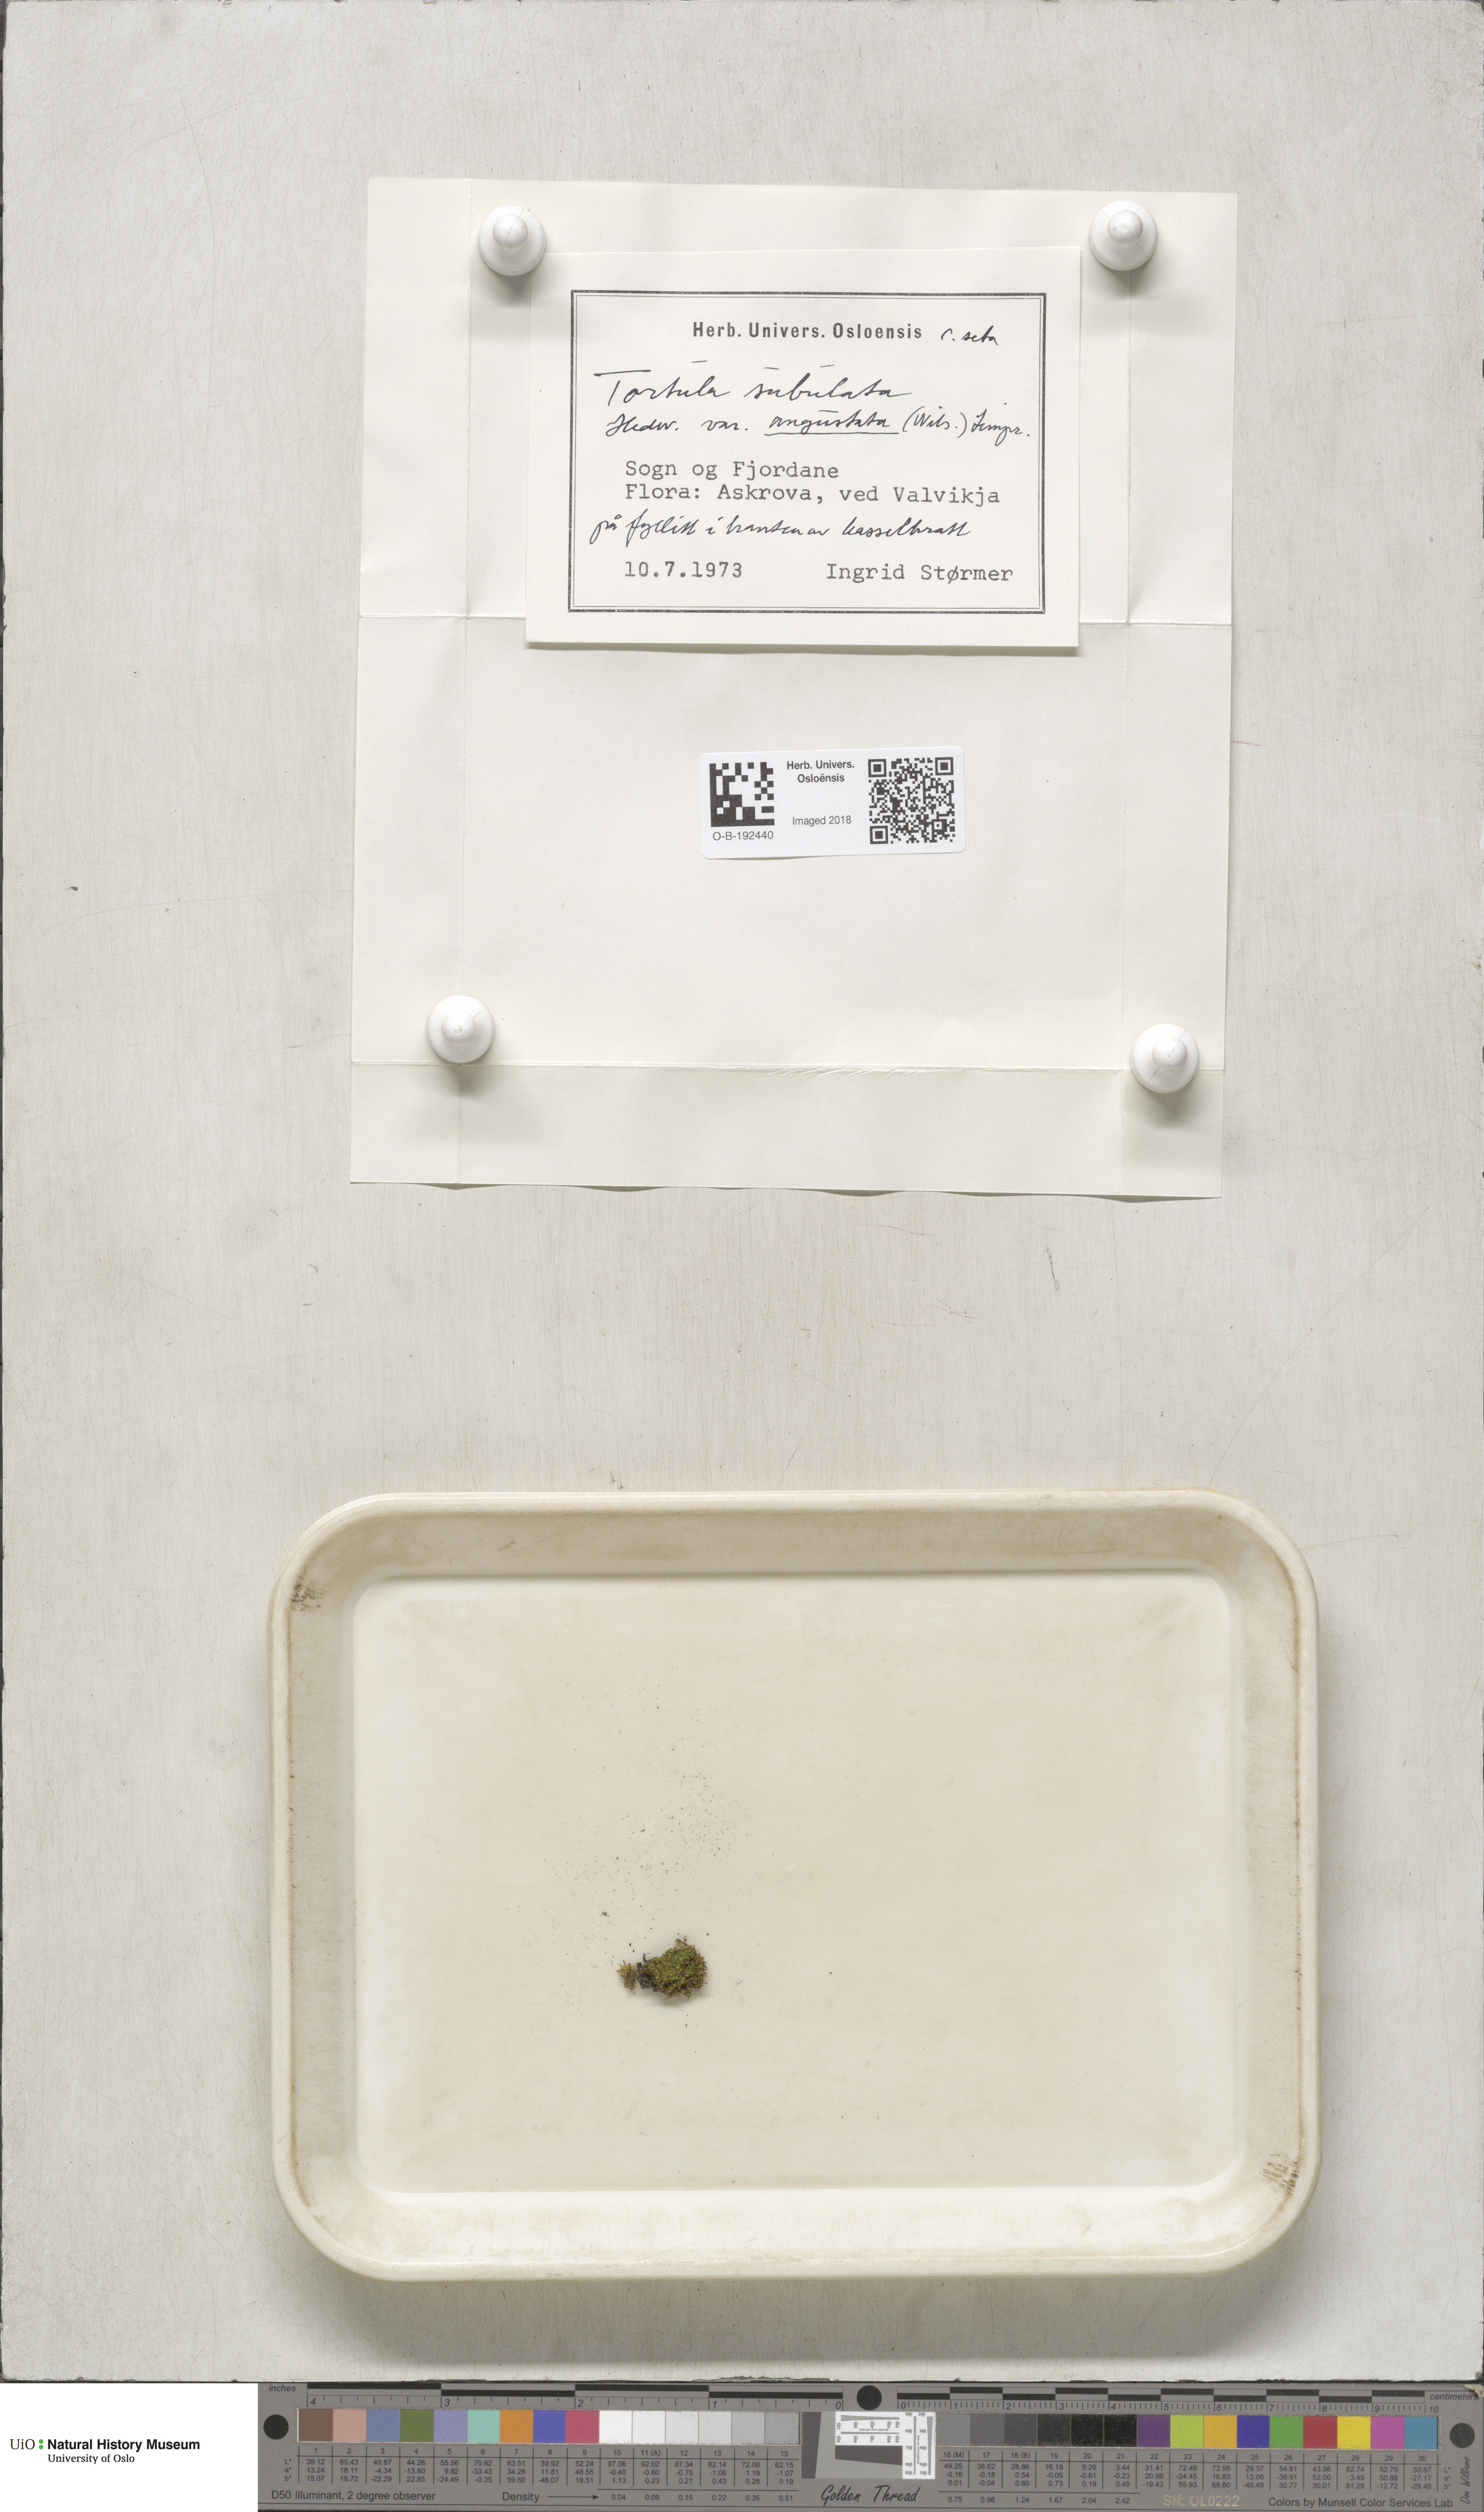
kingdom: Plantae
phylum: Bryophyta
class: Bryopsida
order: Pottiales
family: Pottiaceae
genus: Tortula
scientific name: Tortula subulata
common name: Upright screw-moss
